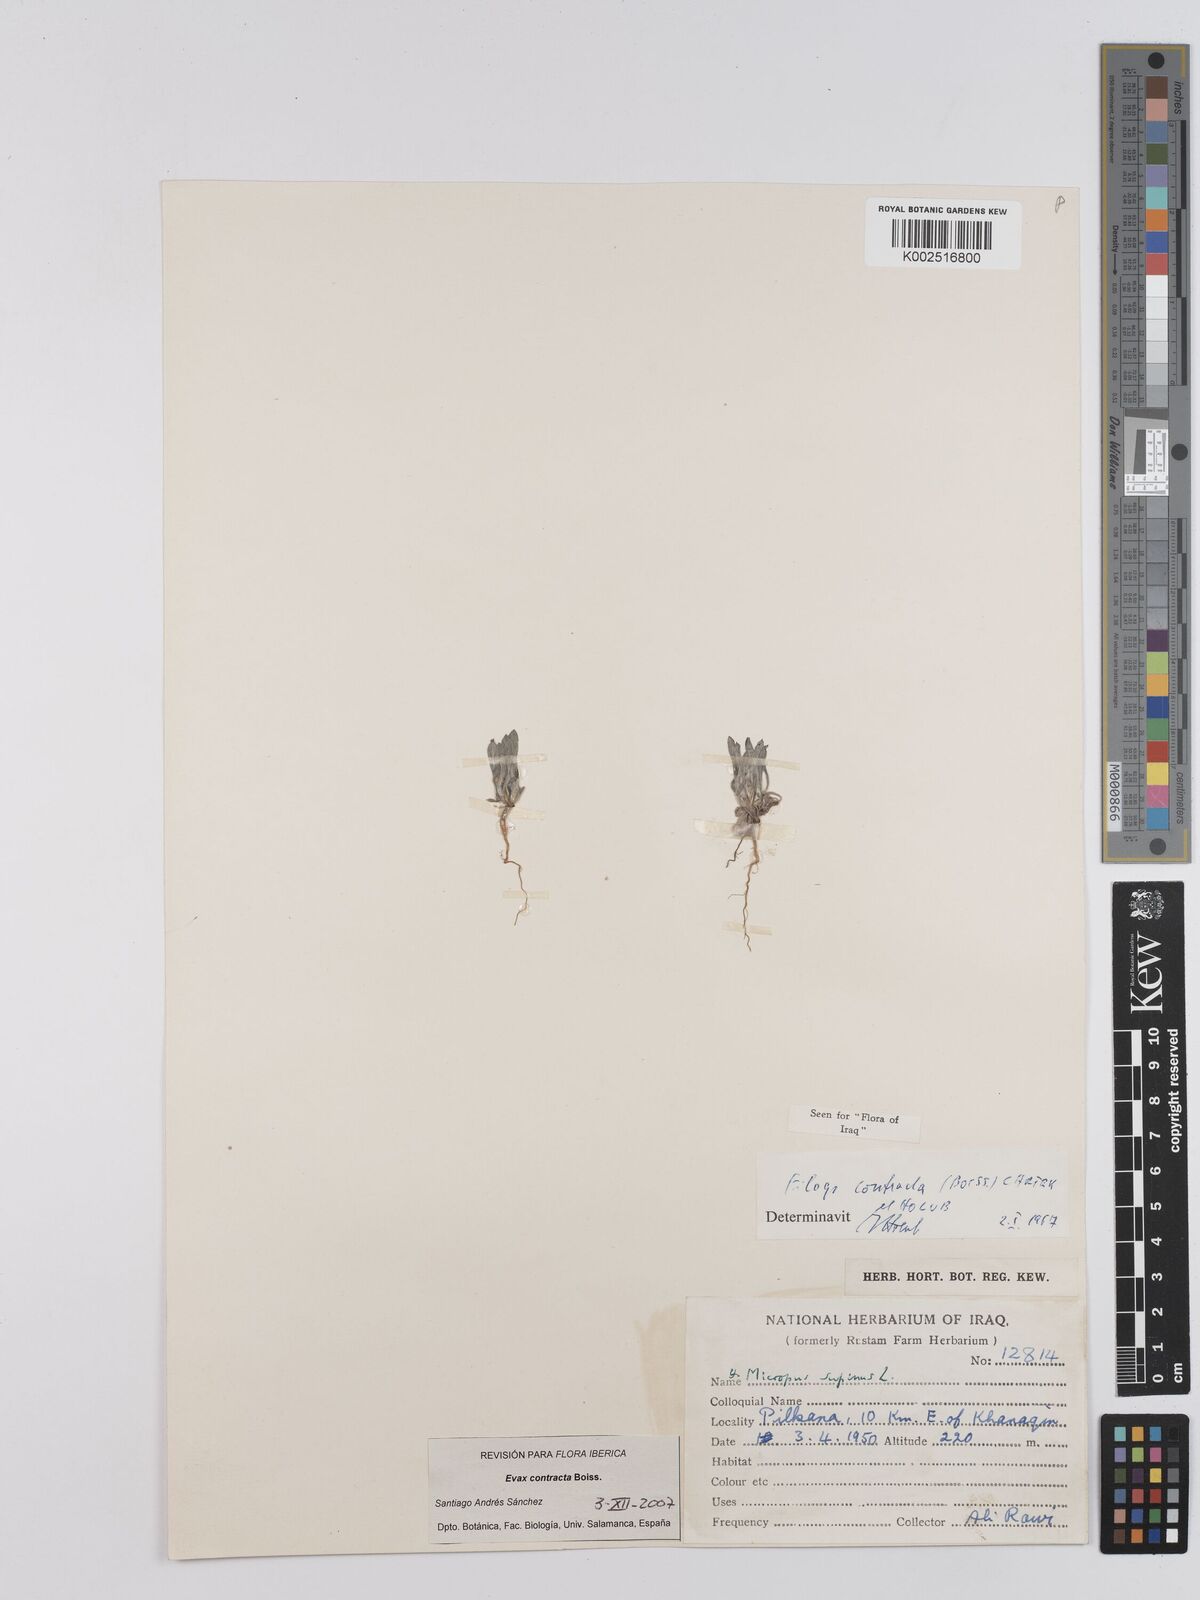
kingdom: Plantae
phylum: Tracheophyta
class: Magnoliopsida
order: Asterales
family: Asteraceae
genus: Filago
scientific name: Filago contracta
